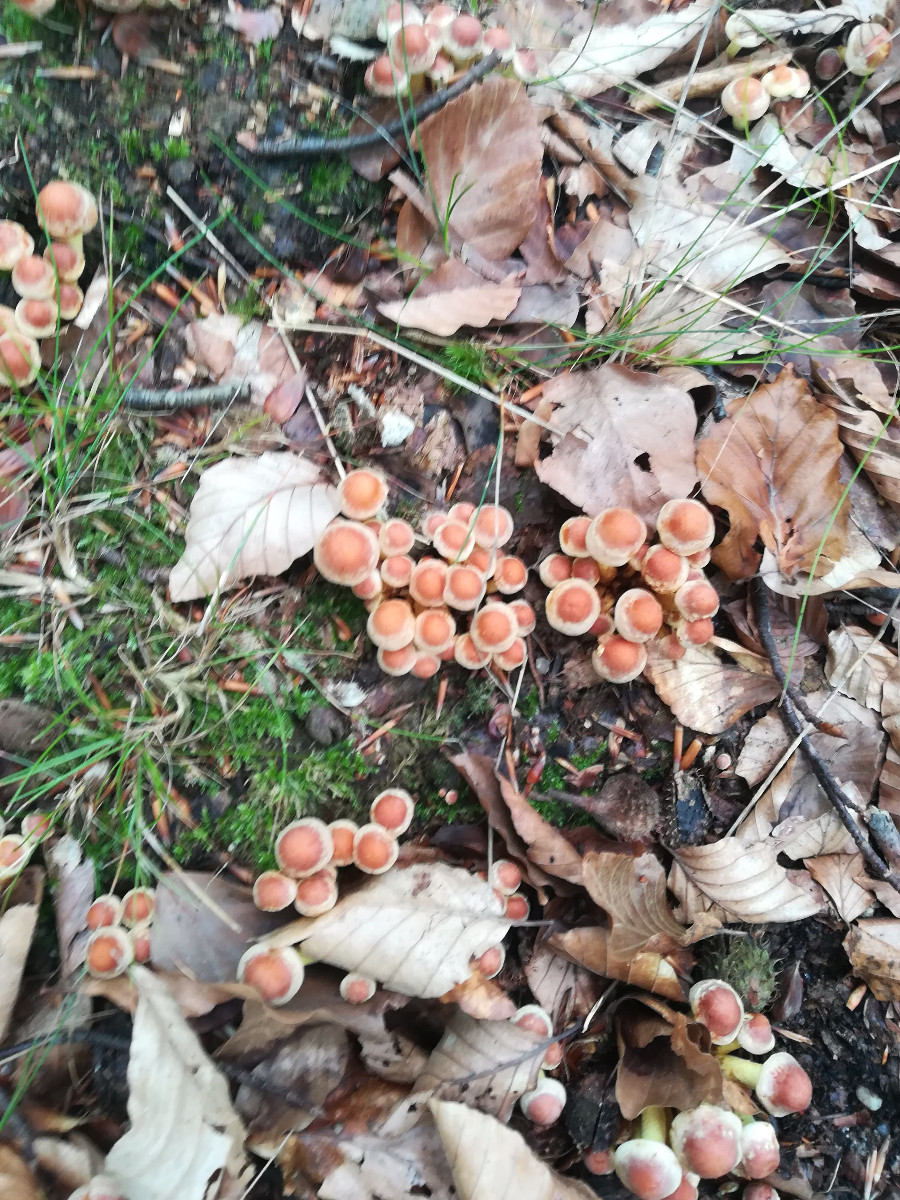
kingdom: Fungi
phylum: Basidiomycota
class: Agaricomycetes
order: Agaricales
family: Strophariaceae
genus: Hypholoma
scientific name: Hypholoma fasciculare
